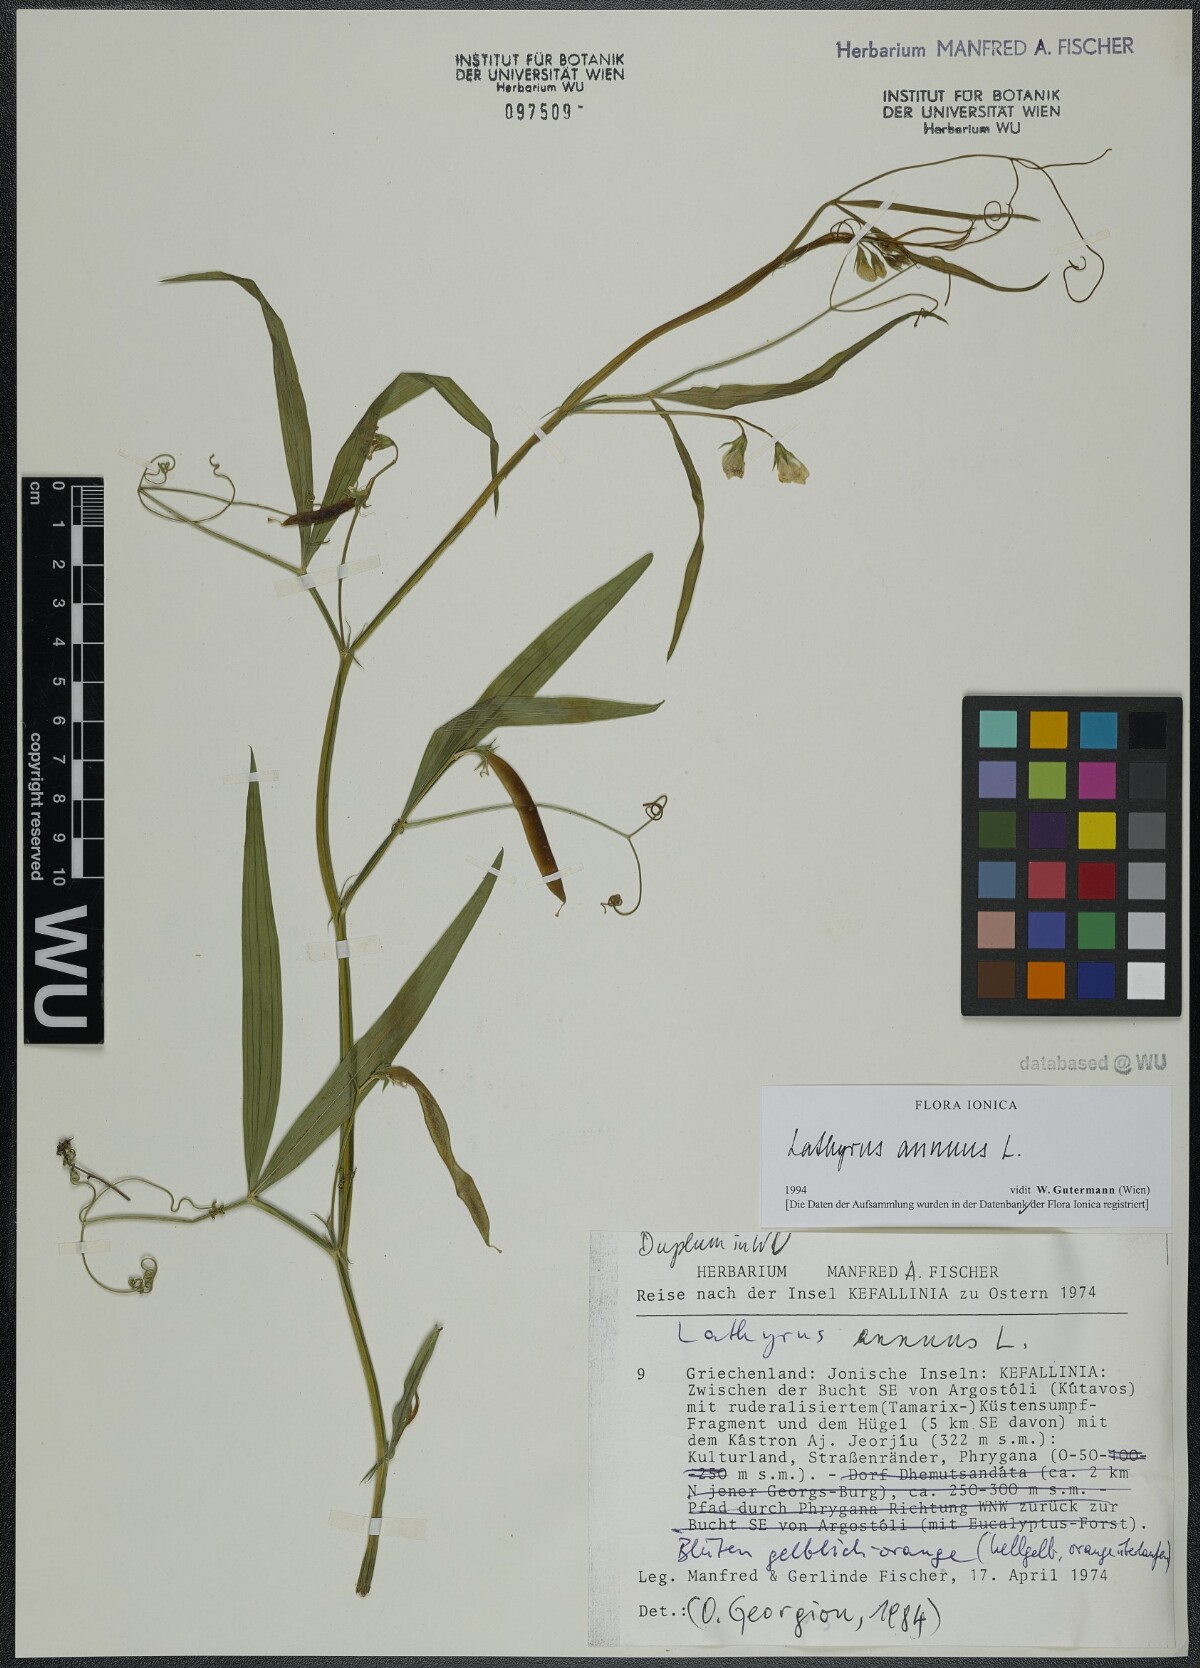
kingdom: Plantae
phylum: Tracheophyta
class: Magnoliopsida
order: Fabales
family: Fabaceae
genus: Lathyrus
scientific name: Lathyrus annuus
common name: Fodder pea
